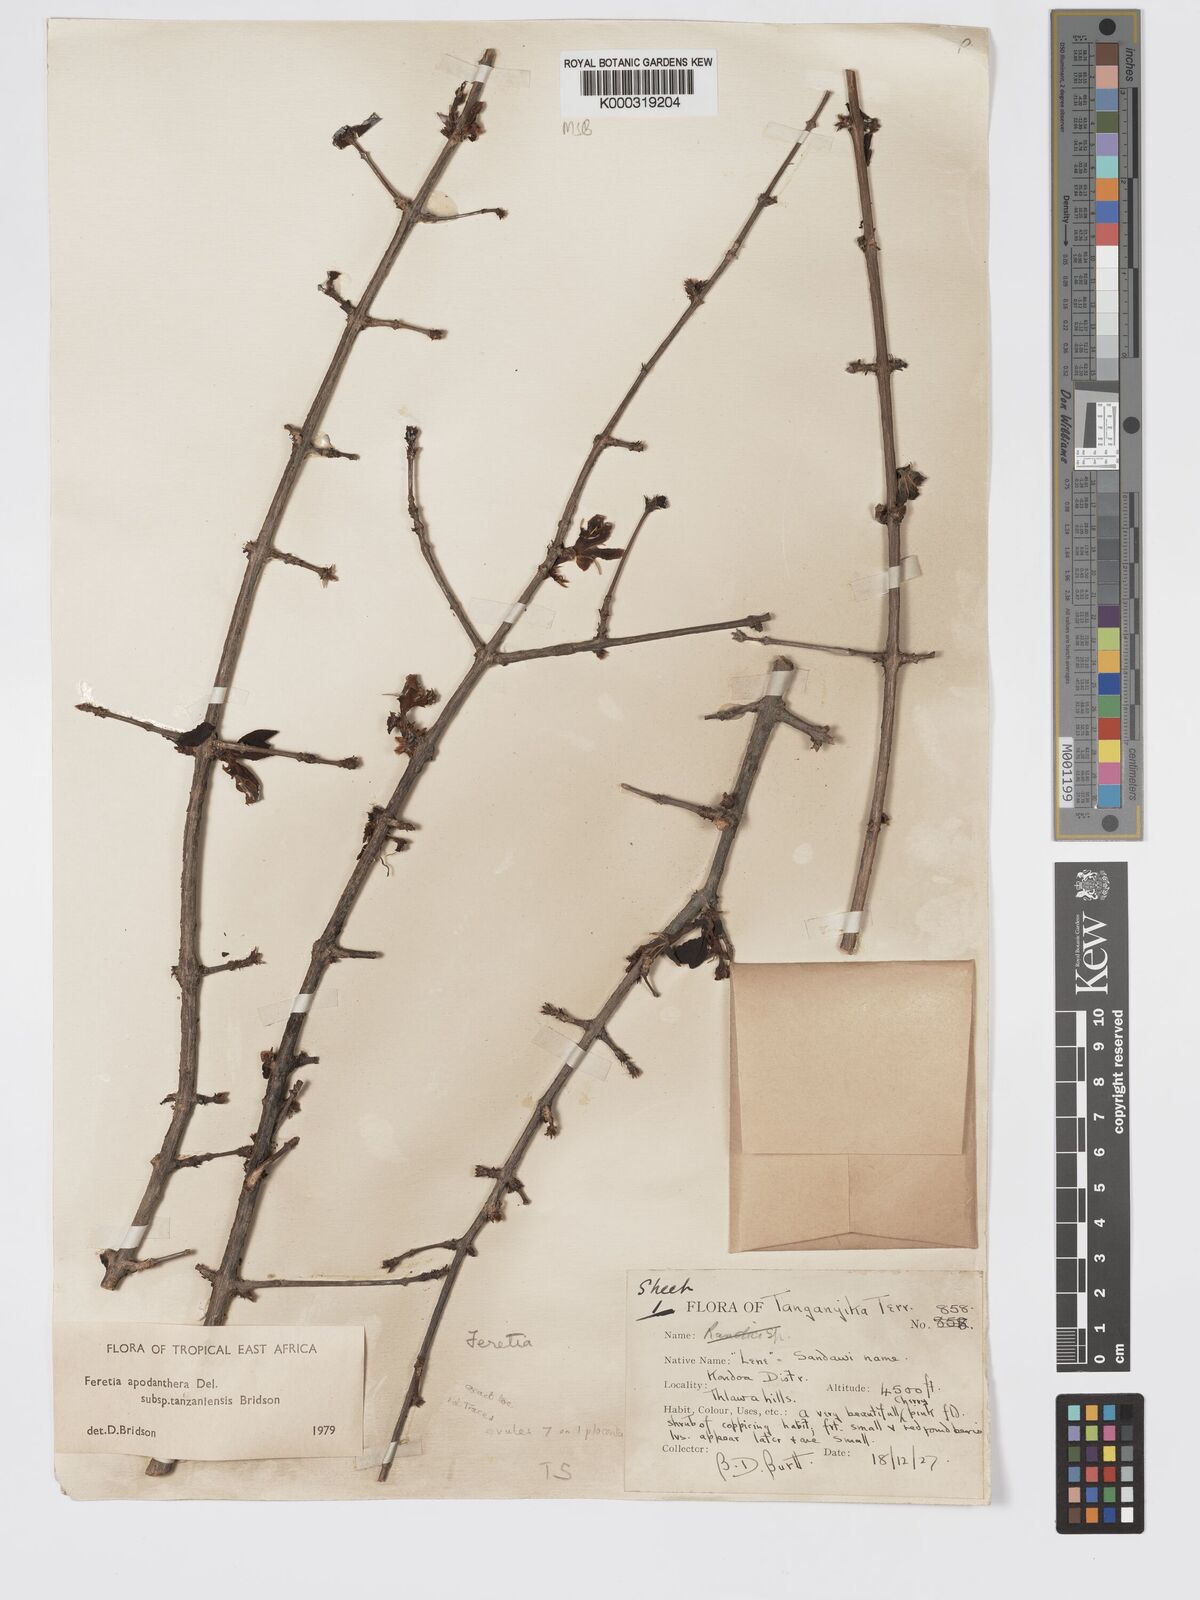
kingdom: Plantae
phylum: Tracheophyta
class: Magnoliopsida
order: Gentianales
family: Rubiaceae
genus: Feretia
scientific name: Feretia apodanthera
